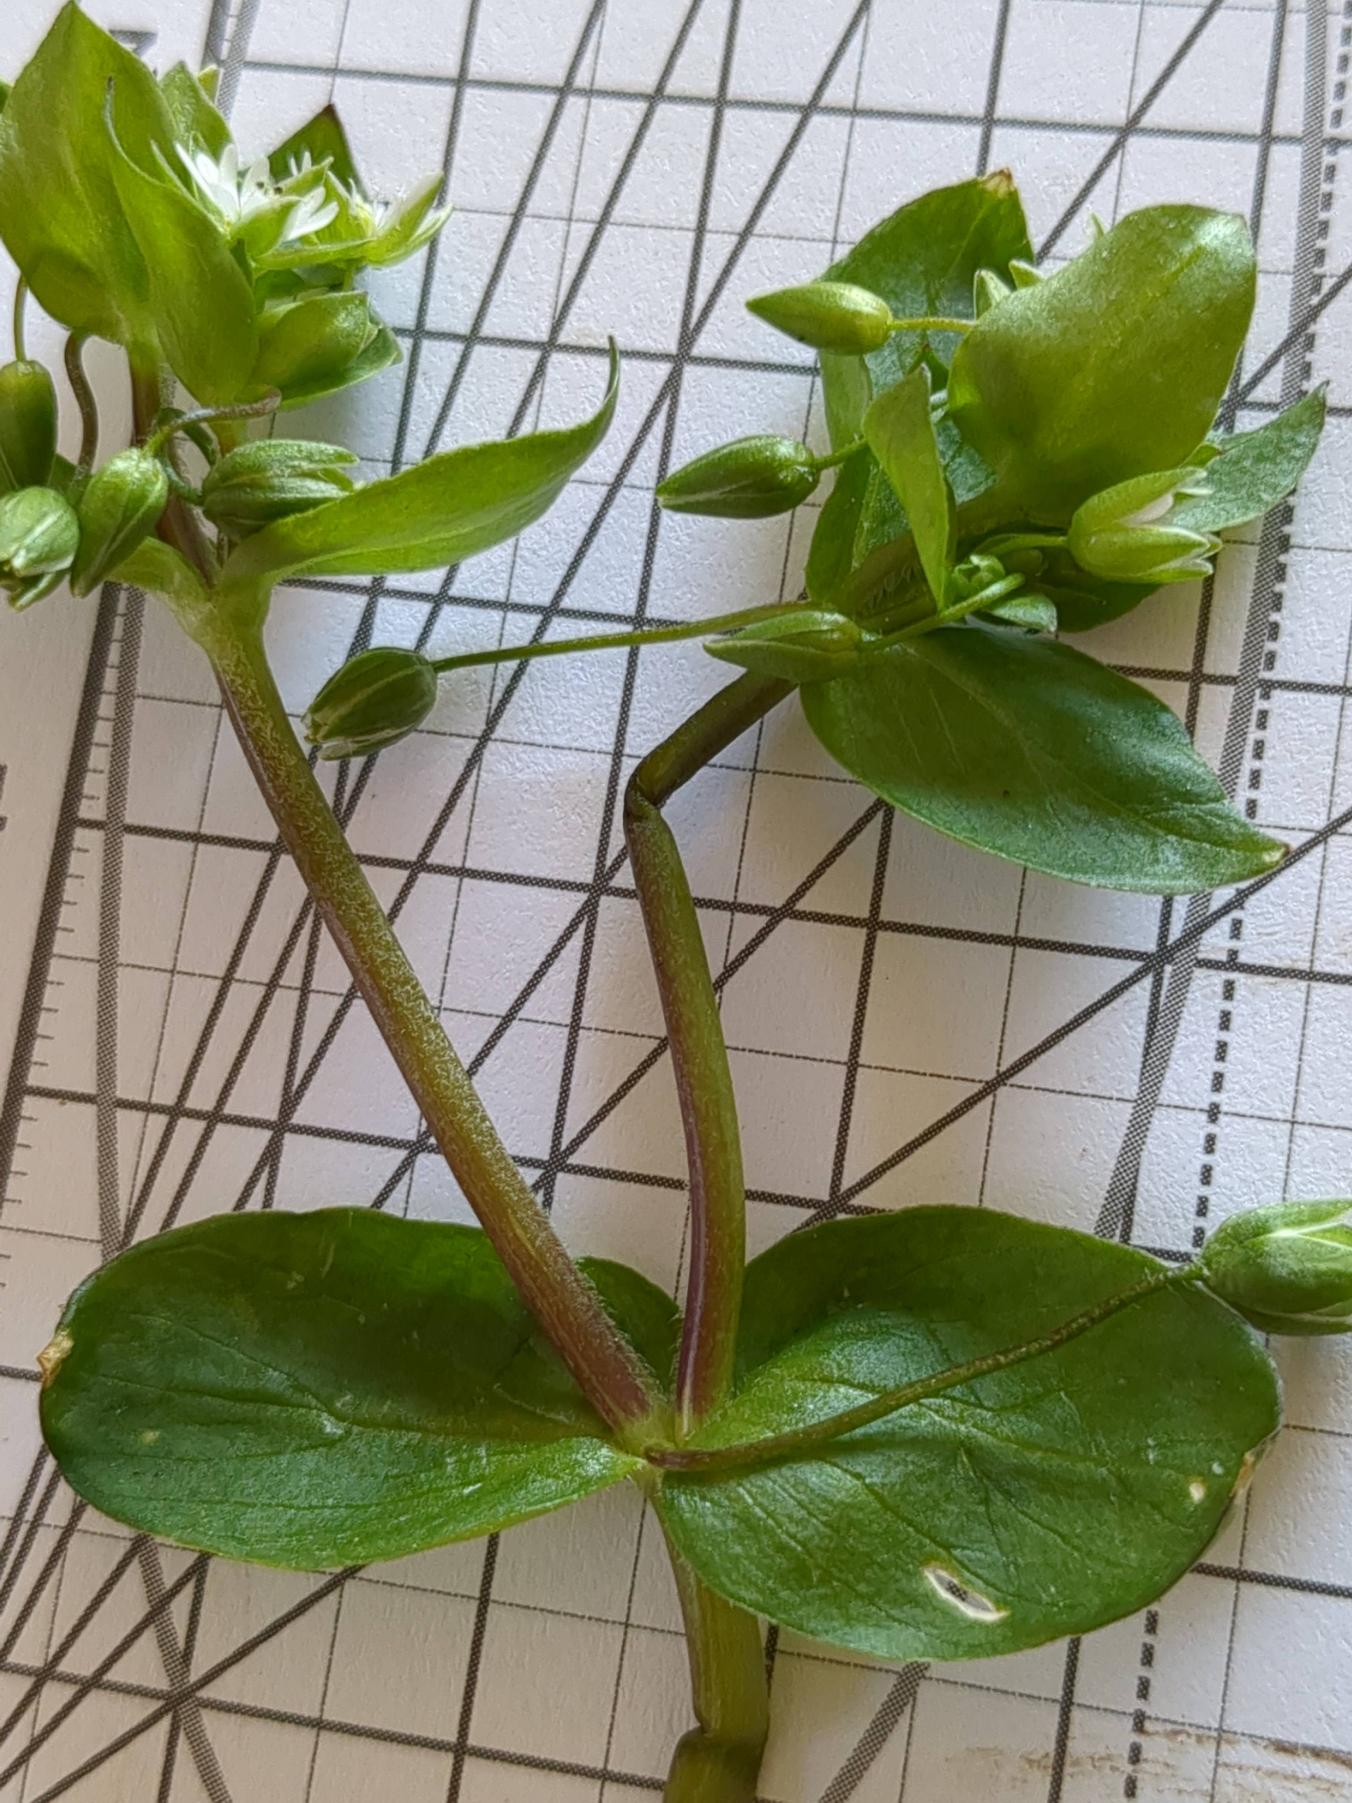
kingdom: Plantae
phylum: Tracheophyta
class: Magnoliopsida
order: Caryophyllales
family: Caryophyllaceae
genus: Stellaria
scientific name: Stellaria media
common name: Almindelig fuglegræs
